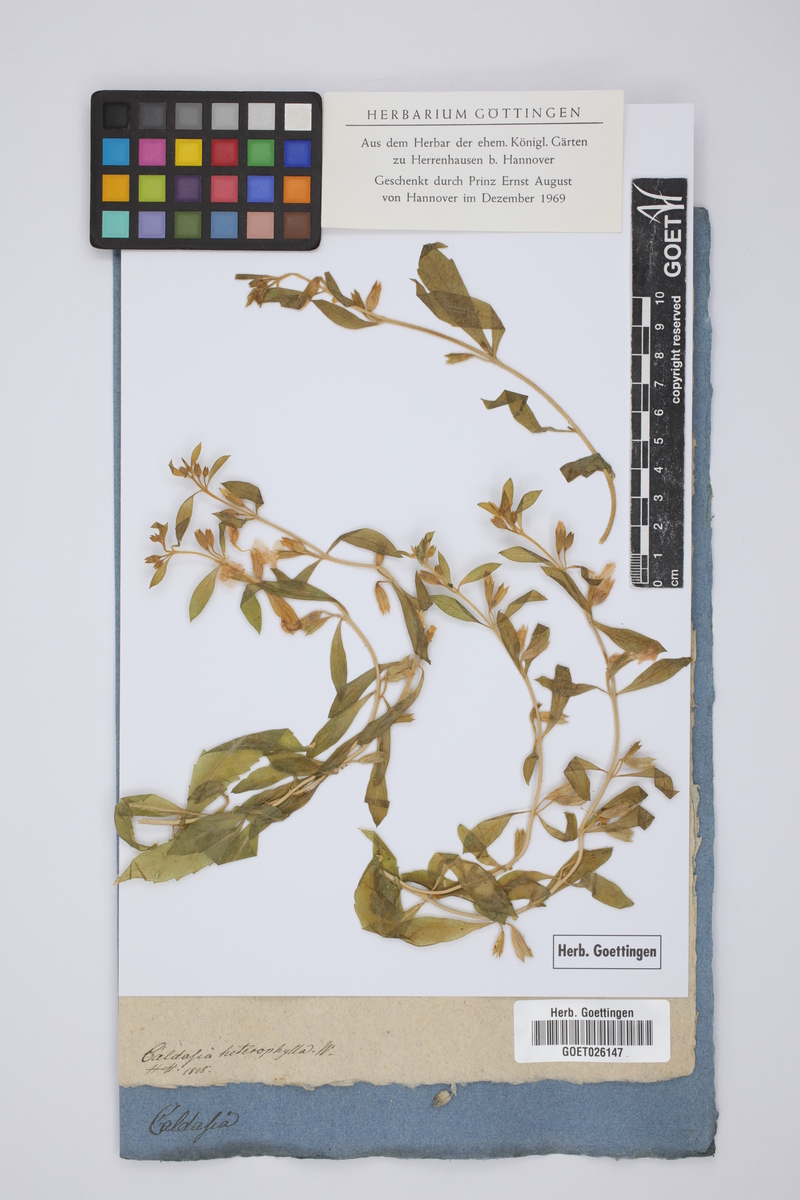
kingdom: Plantae
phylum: Tracheophyta
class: Magnoliopsida
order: Ericales
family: Polemoniaceae
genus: Bonplandia
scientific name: Bonplandia geminiflora
